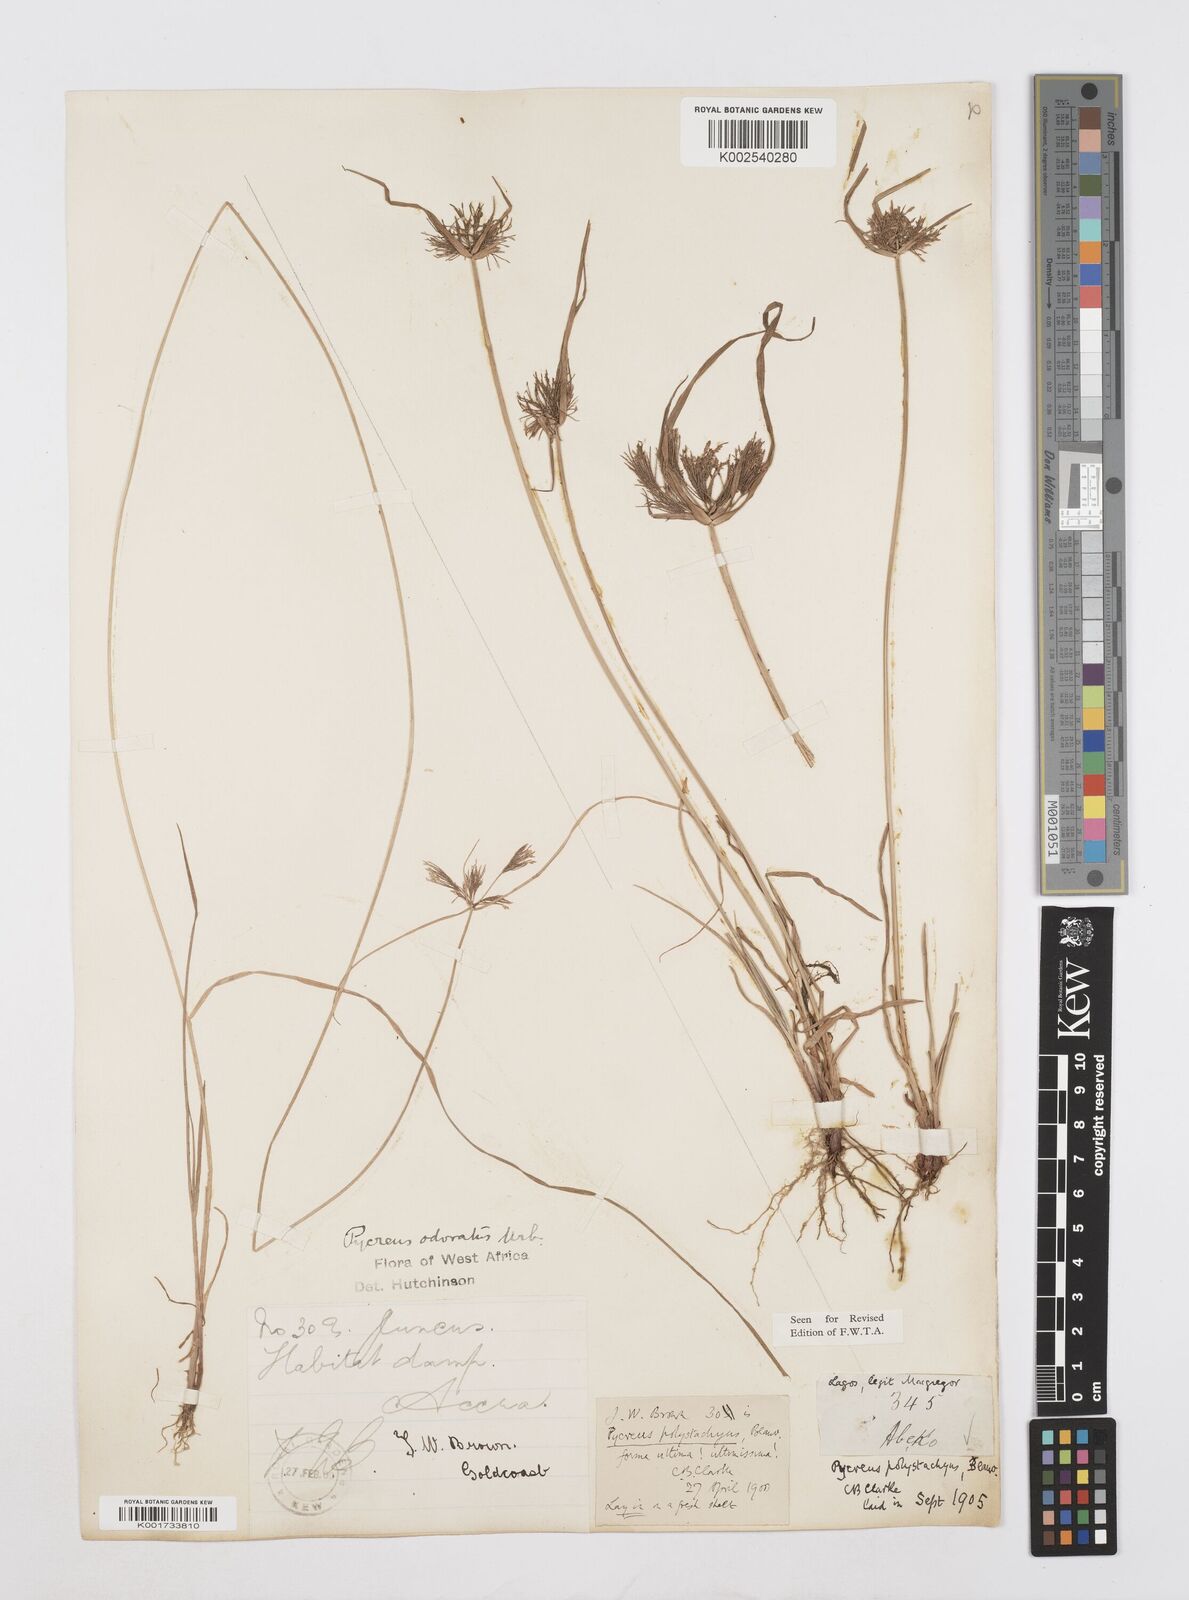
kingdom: Plantae
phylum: Tracheophyta
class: Liliopsida
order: Poales
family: Cyperaceae
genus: Cyperus
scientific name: Cyperus polystachyos
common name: Bunchy flat sedge
